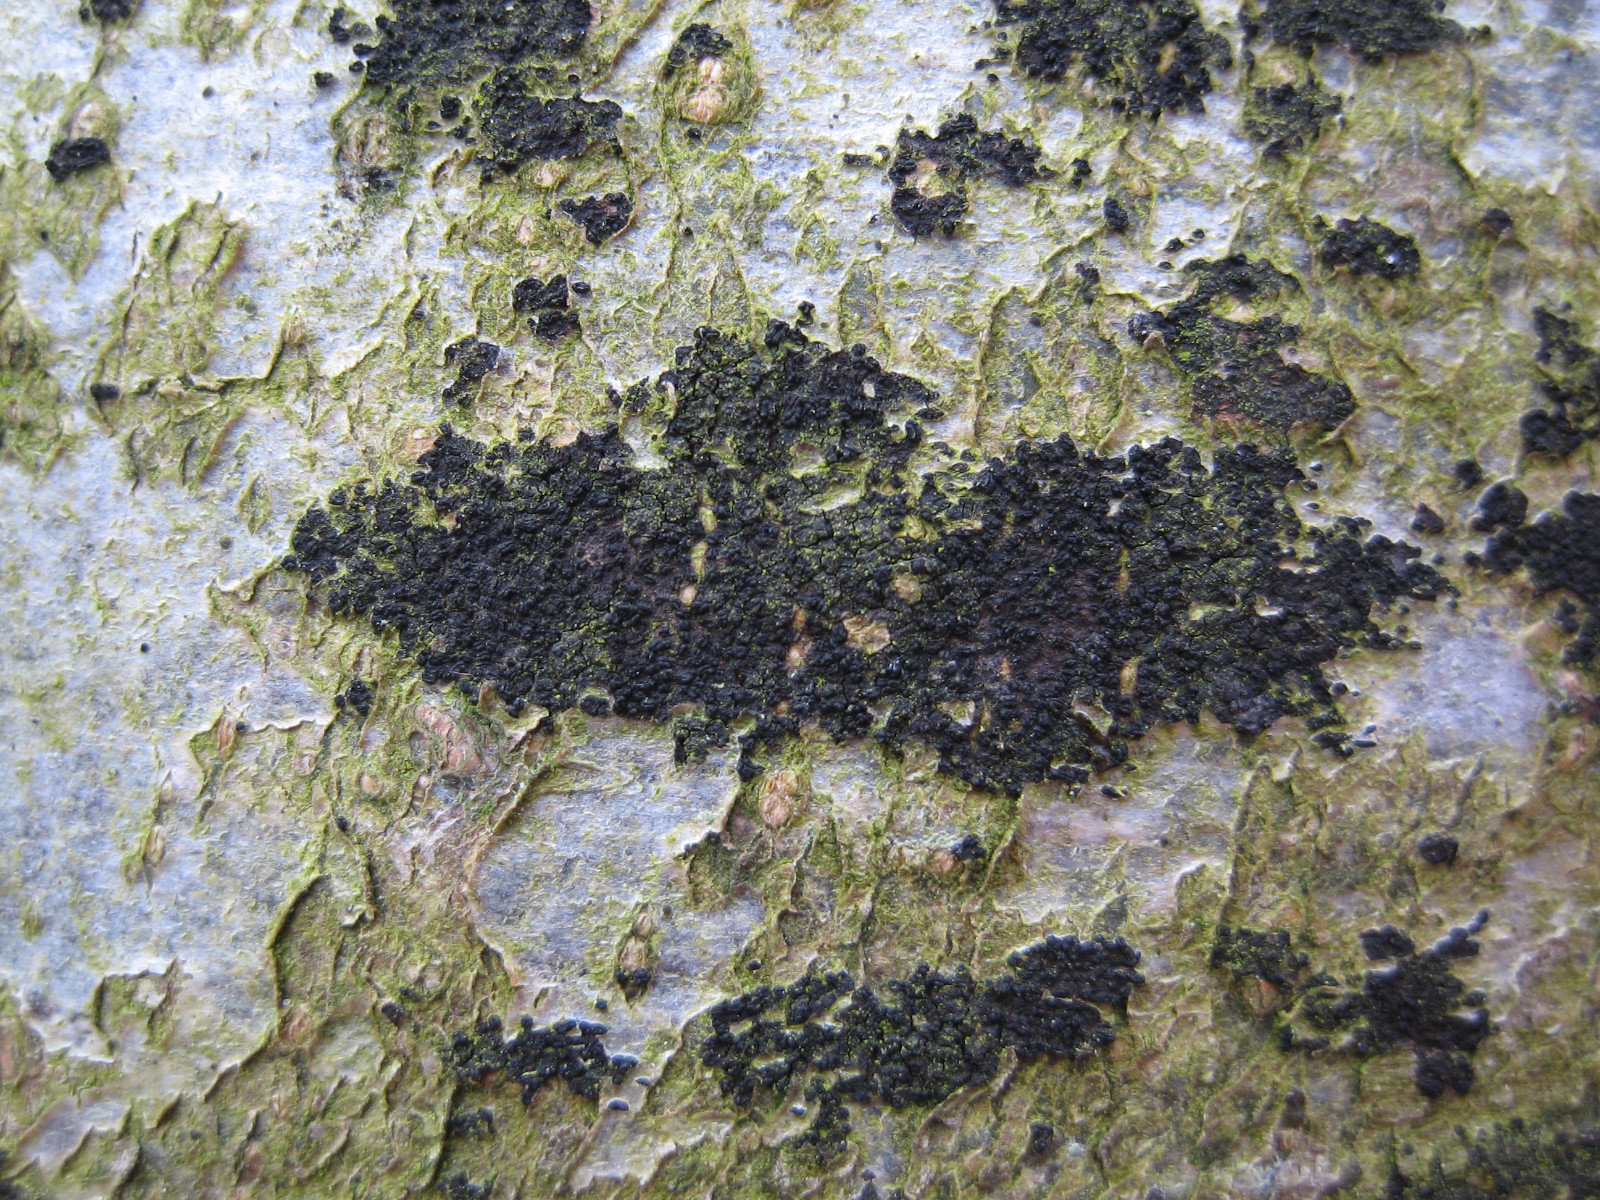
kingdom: Fungi
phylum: Ascomycota
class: Leotiomycetes
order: Rhytismatales
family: Ascodichaenaceae
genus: Ascodichaena
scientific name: Ascodichaena rugosa
